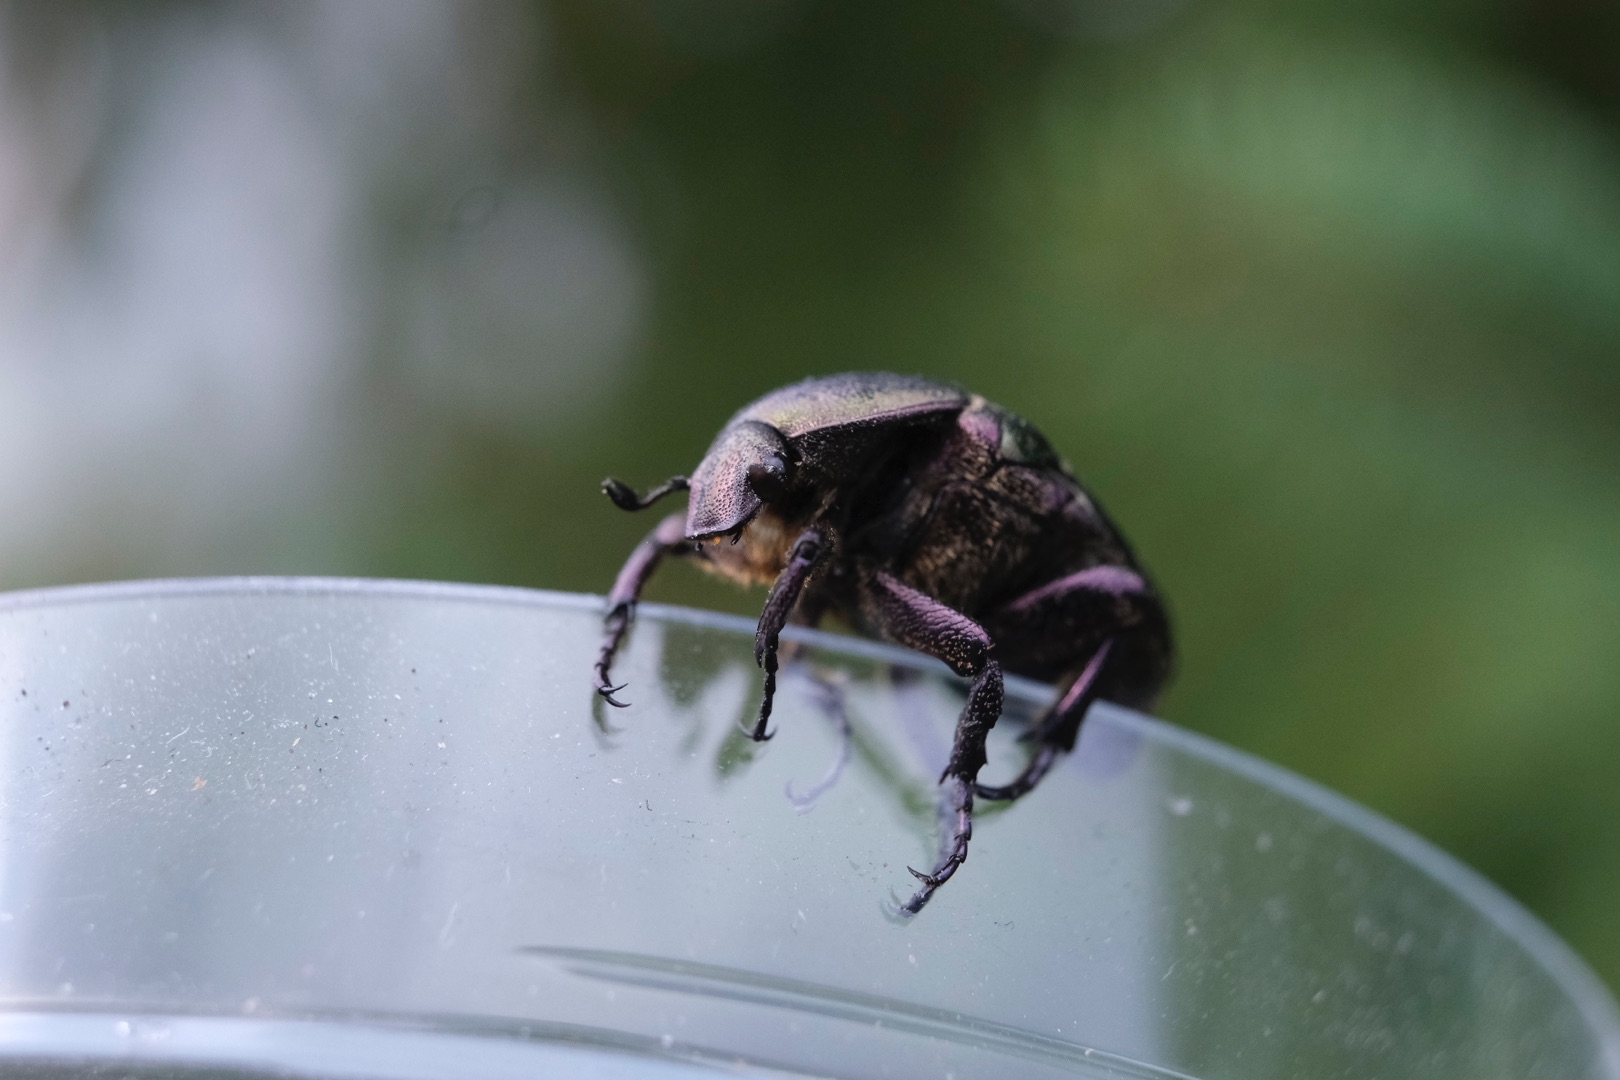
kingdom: Animalia
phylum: Arthropoda
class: Insecta
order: Coleoptera
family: Scarabaeidae
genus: Protaetia
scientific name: Protaetia cuprea
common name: Kobberguldbasse
